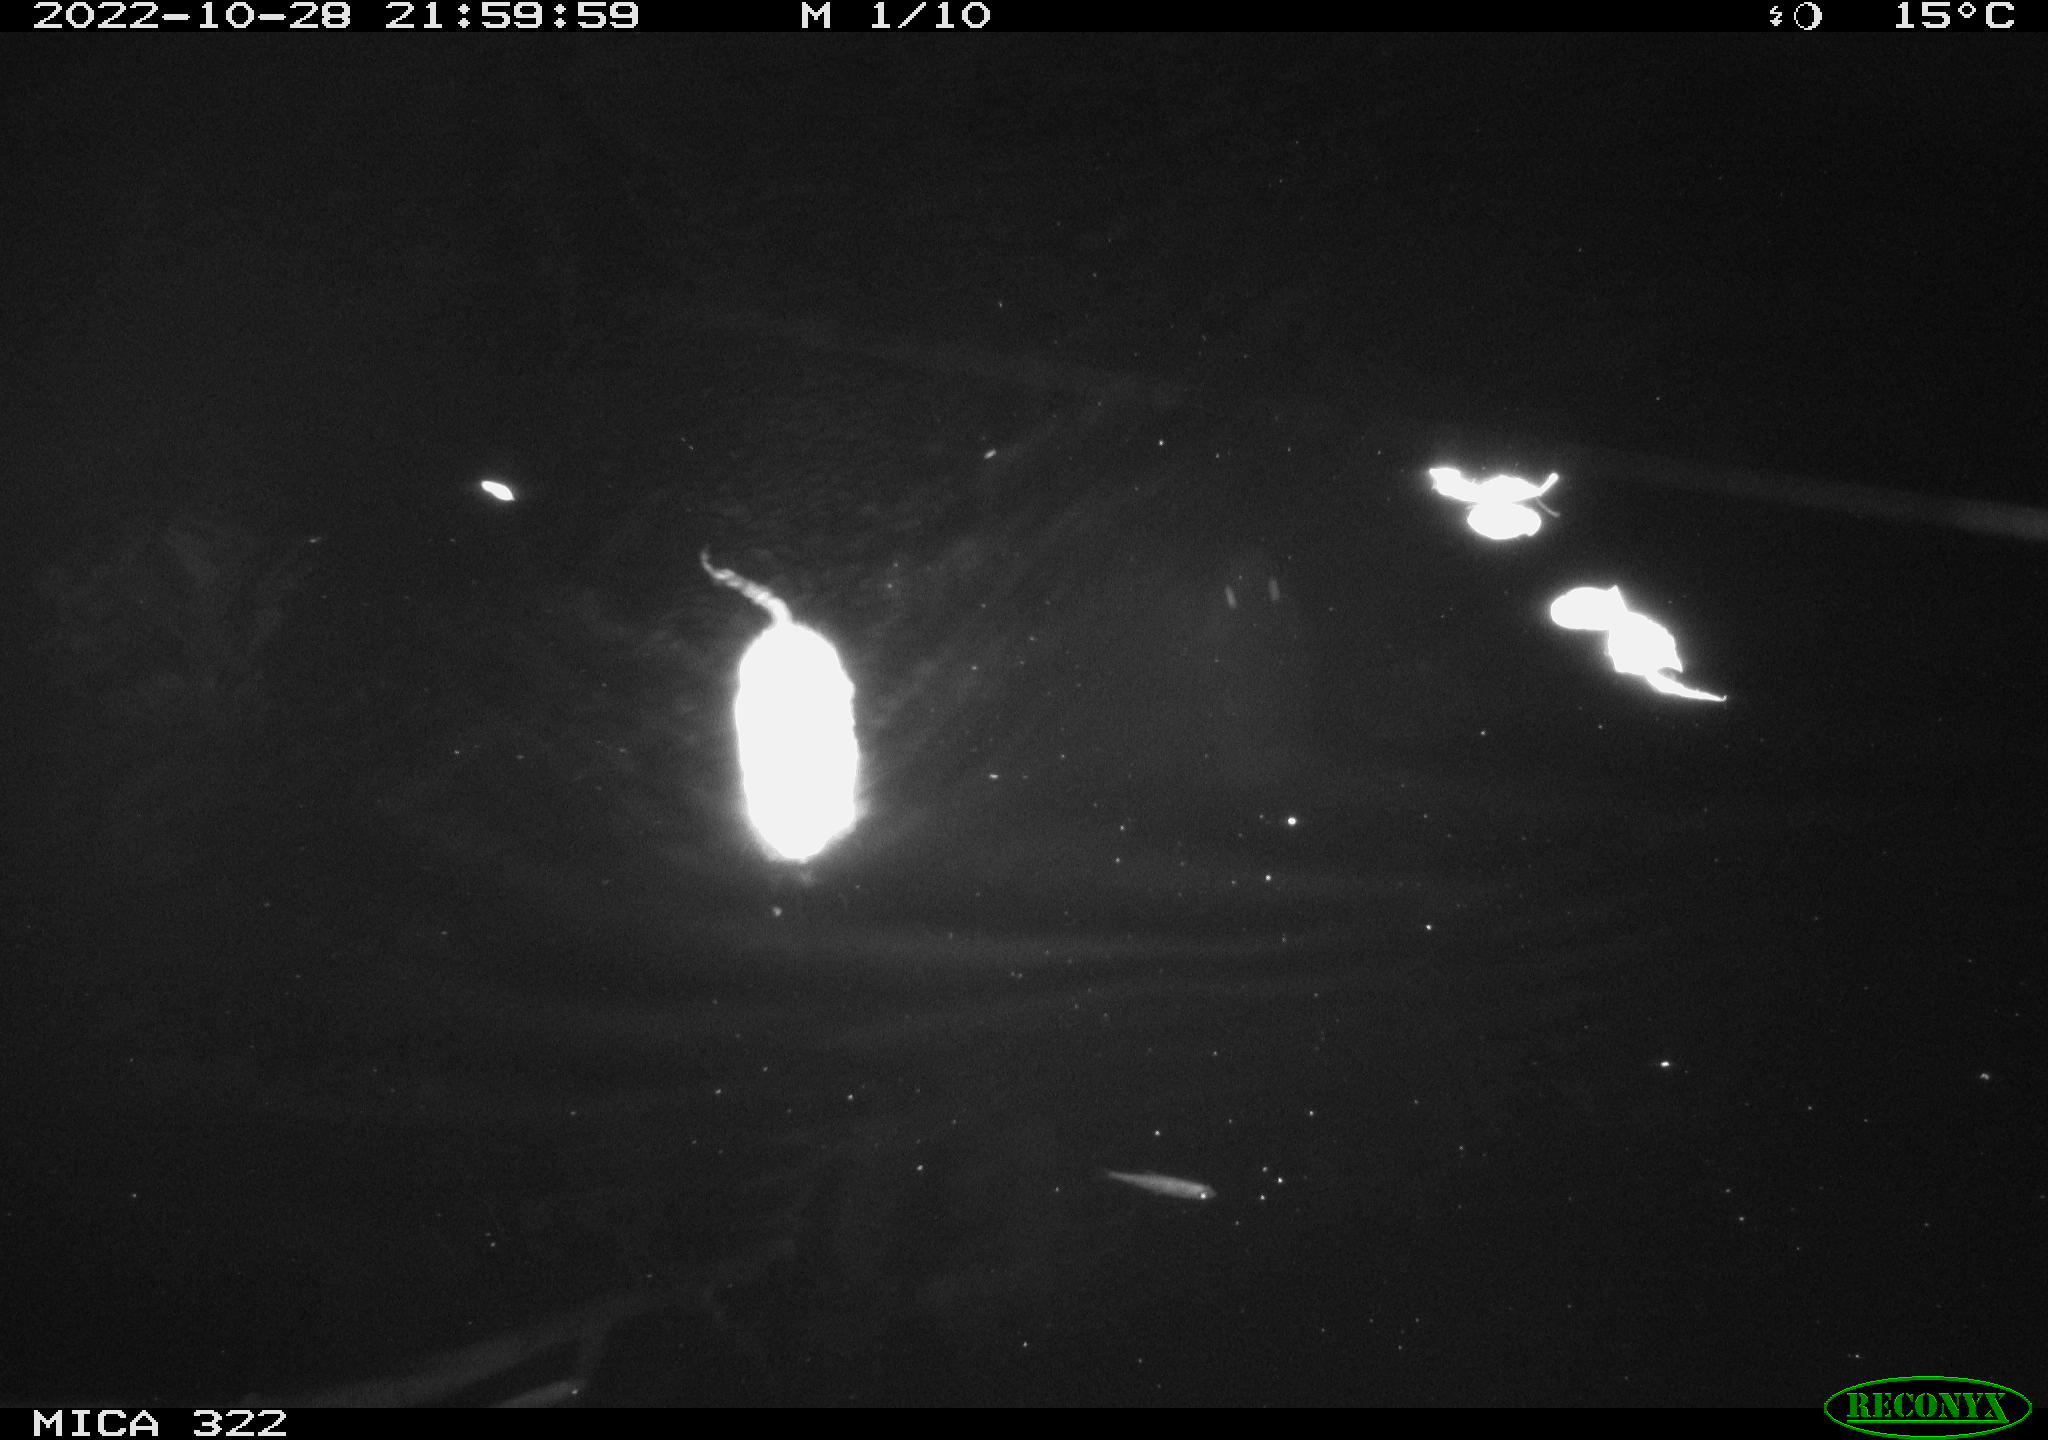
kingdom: Animalia
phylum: Chordata
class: Mammalia
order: Rodentia
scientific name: Rodentia
